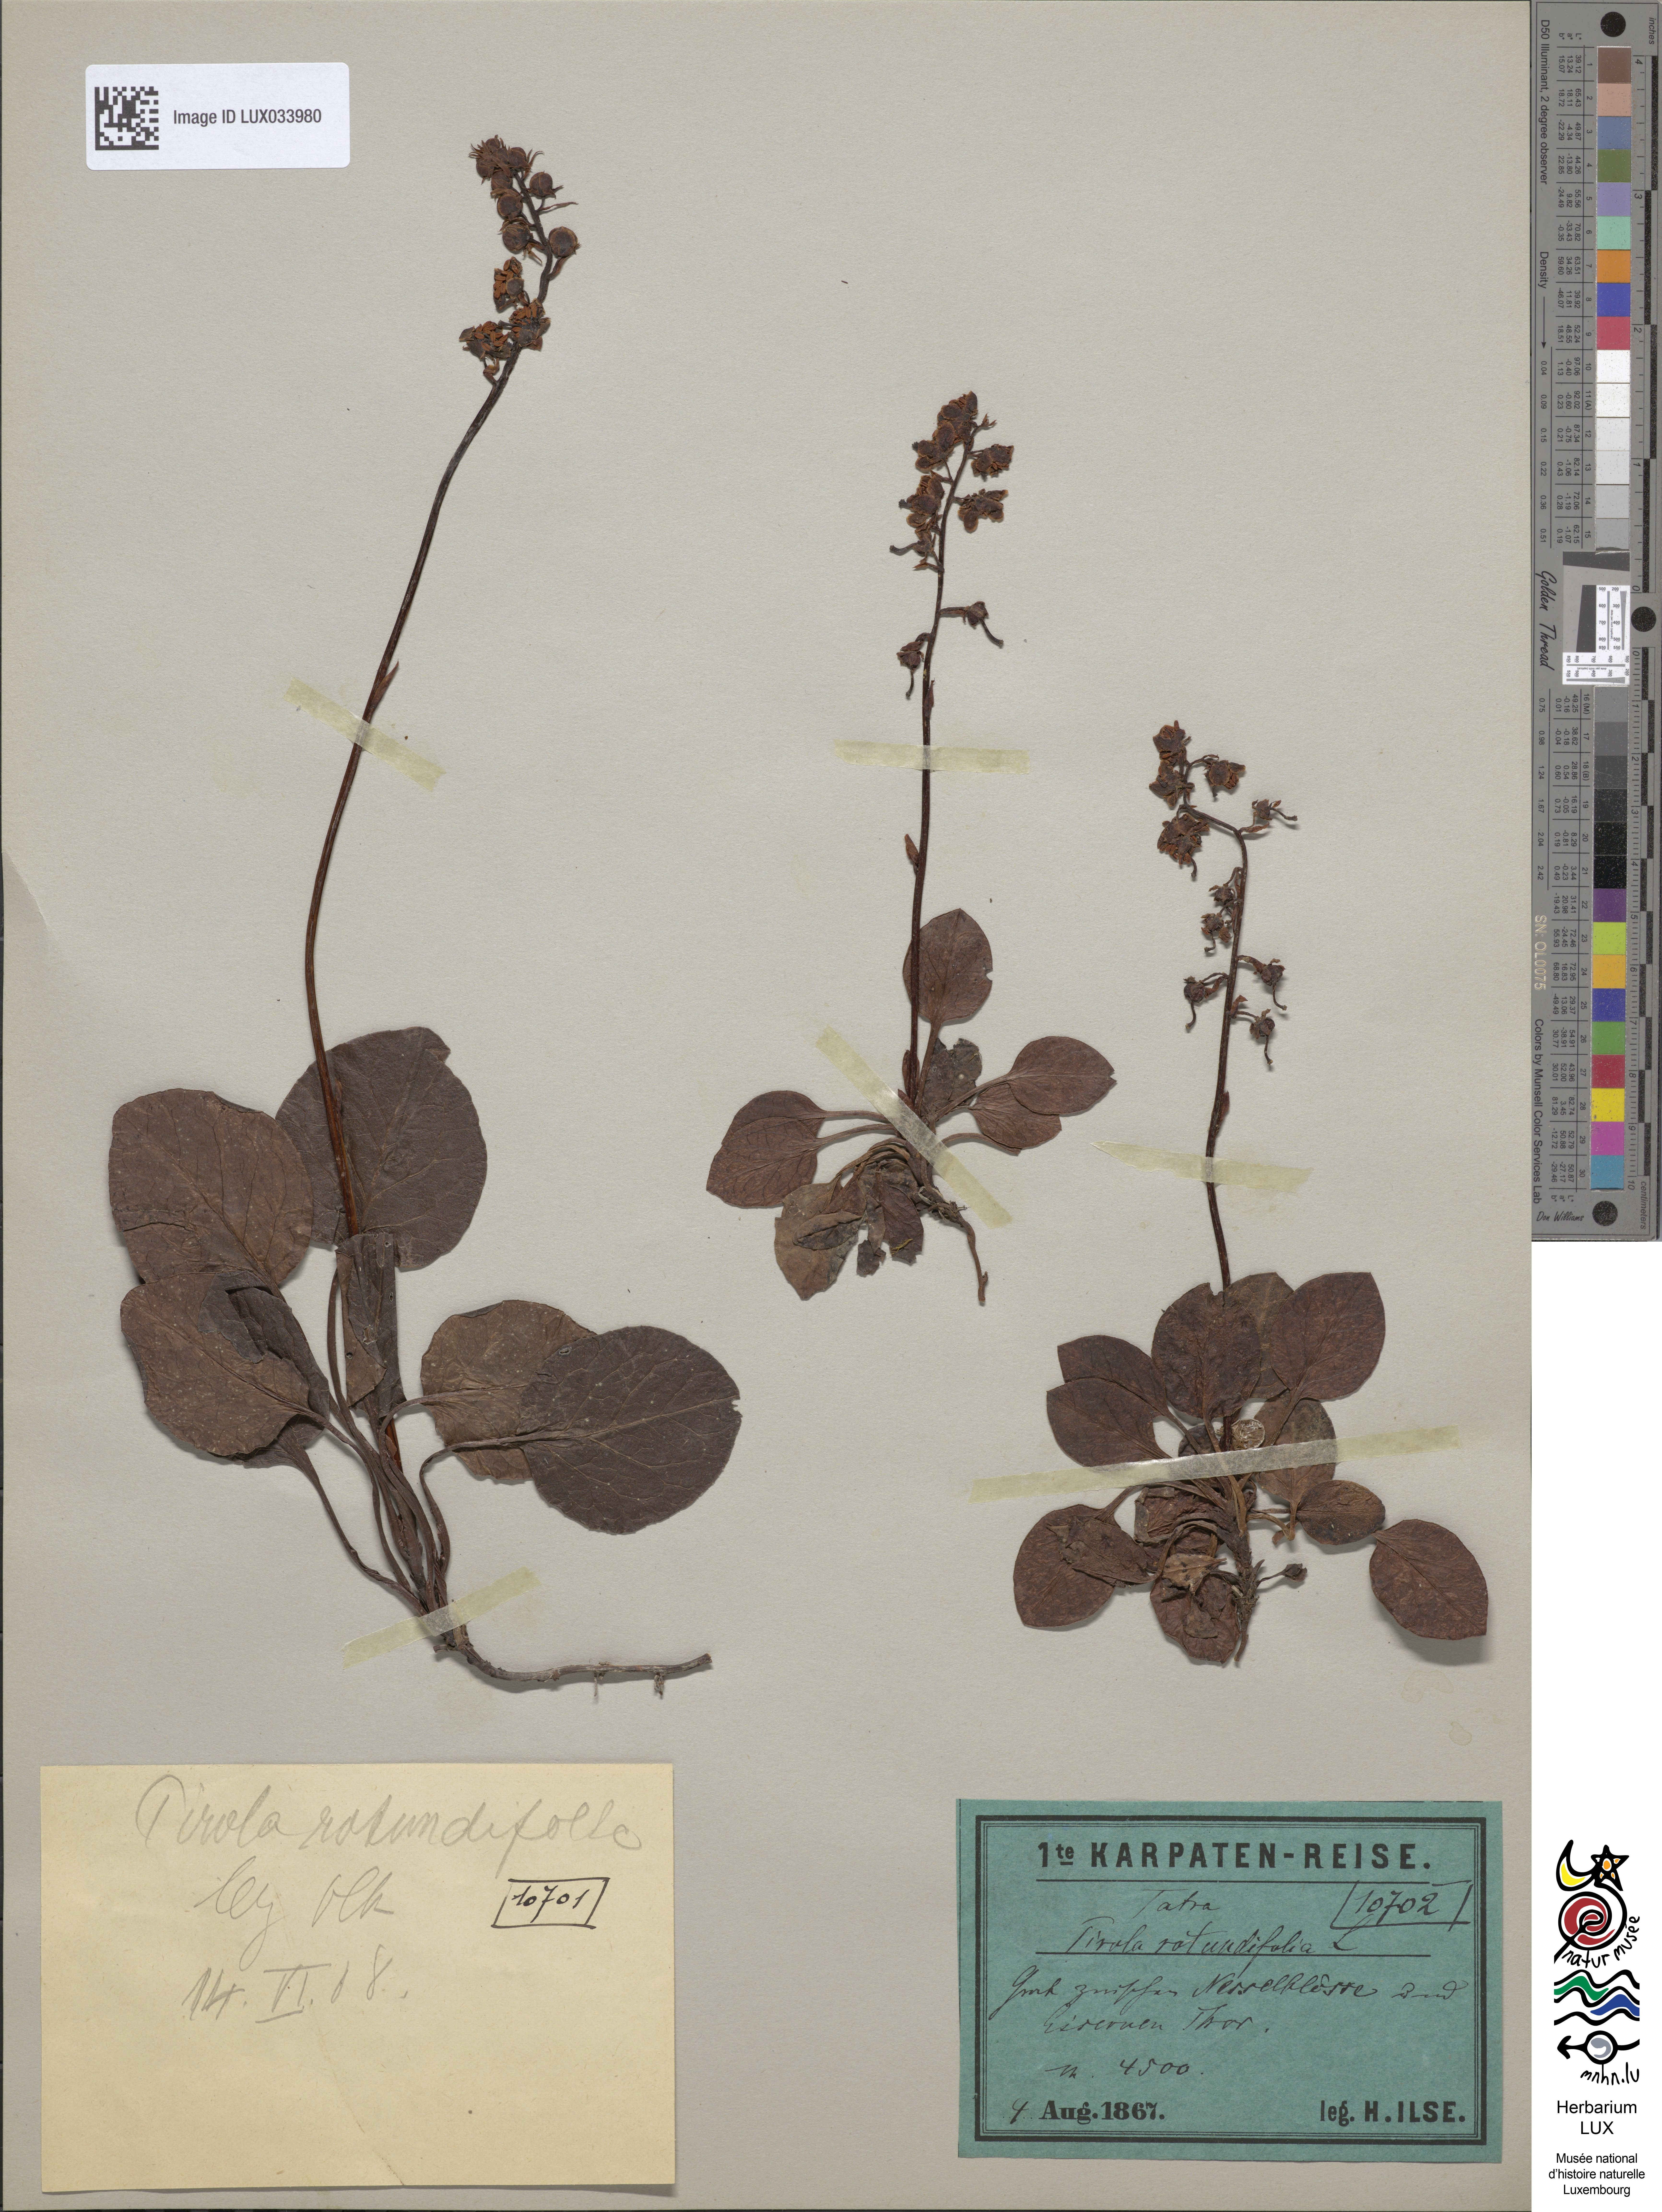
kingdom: Plantae
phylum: Tracheophyta
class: Magnoliopsida
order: Ericales
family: Ericaceae
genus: Pyrola
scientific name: Pyrola rotundifolia
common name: Round-leaved wintergreen
